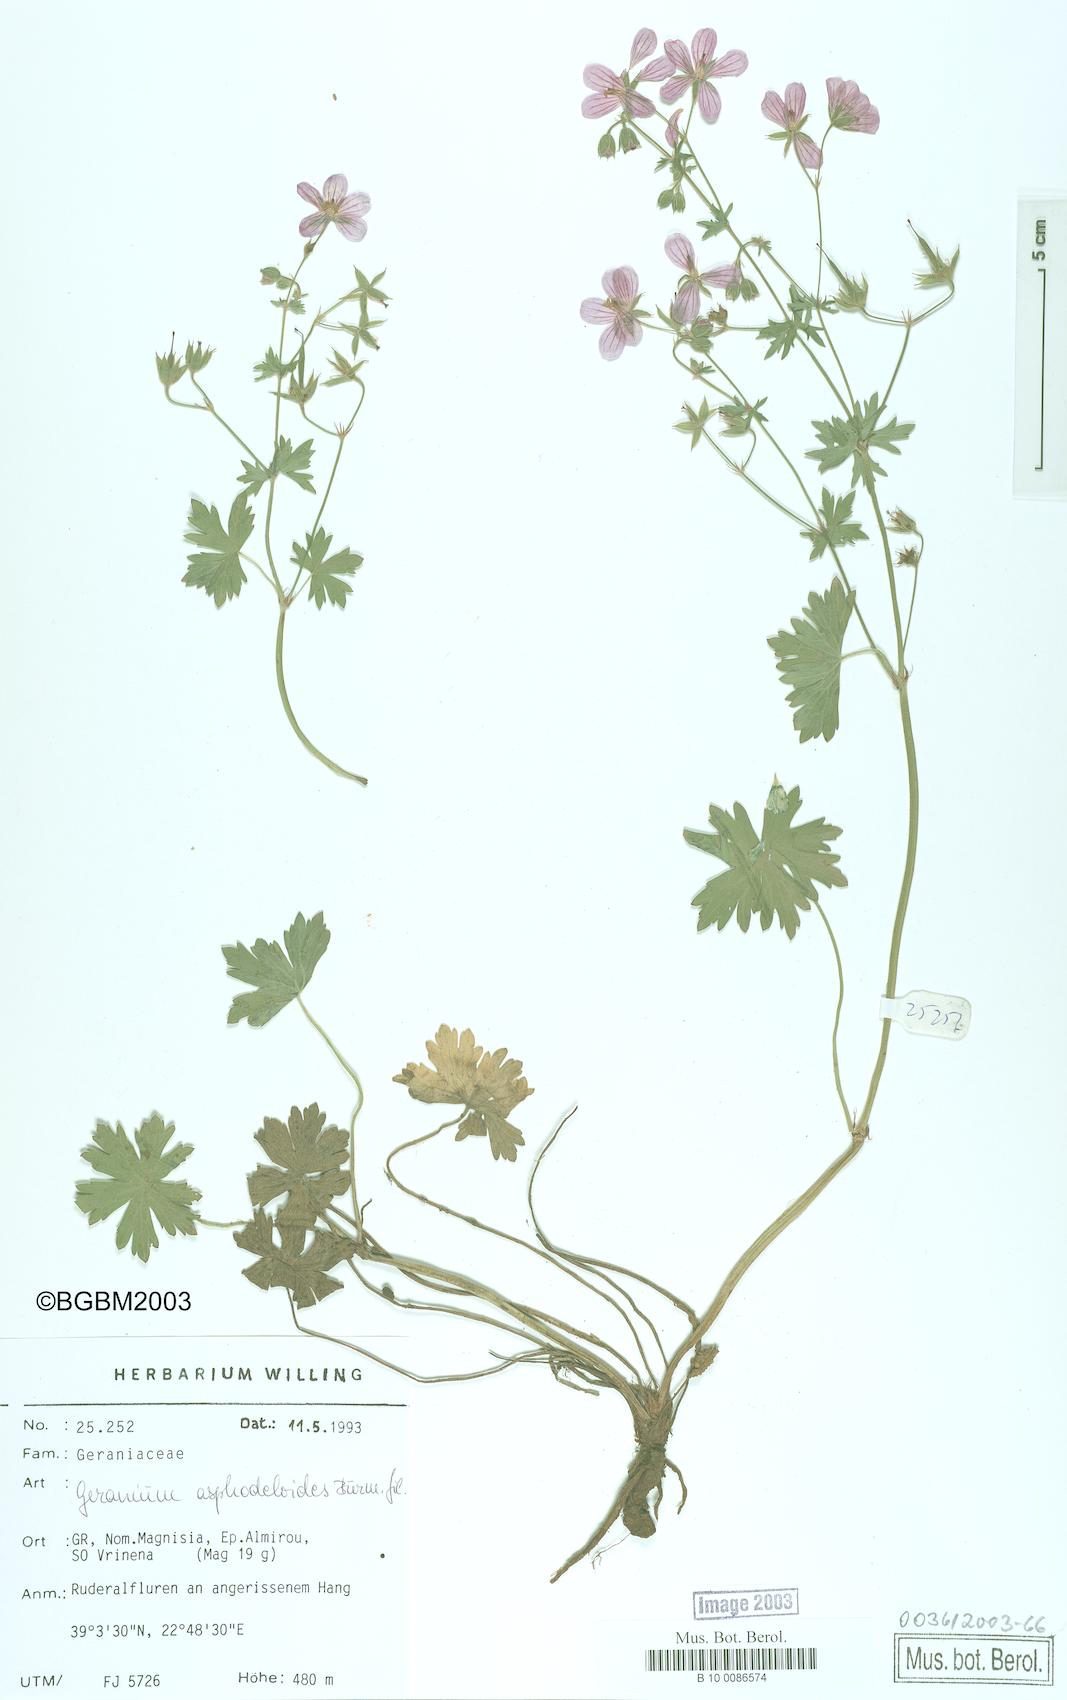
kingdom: Plantae
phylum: Tracheophyta
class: Magnoliopsida
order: Geraniales
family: Geraniaceae
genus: Geranium
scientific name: Geranium asphodeloides
